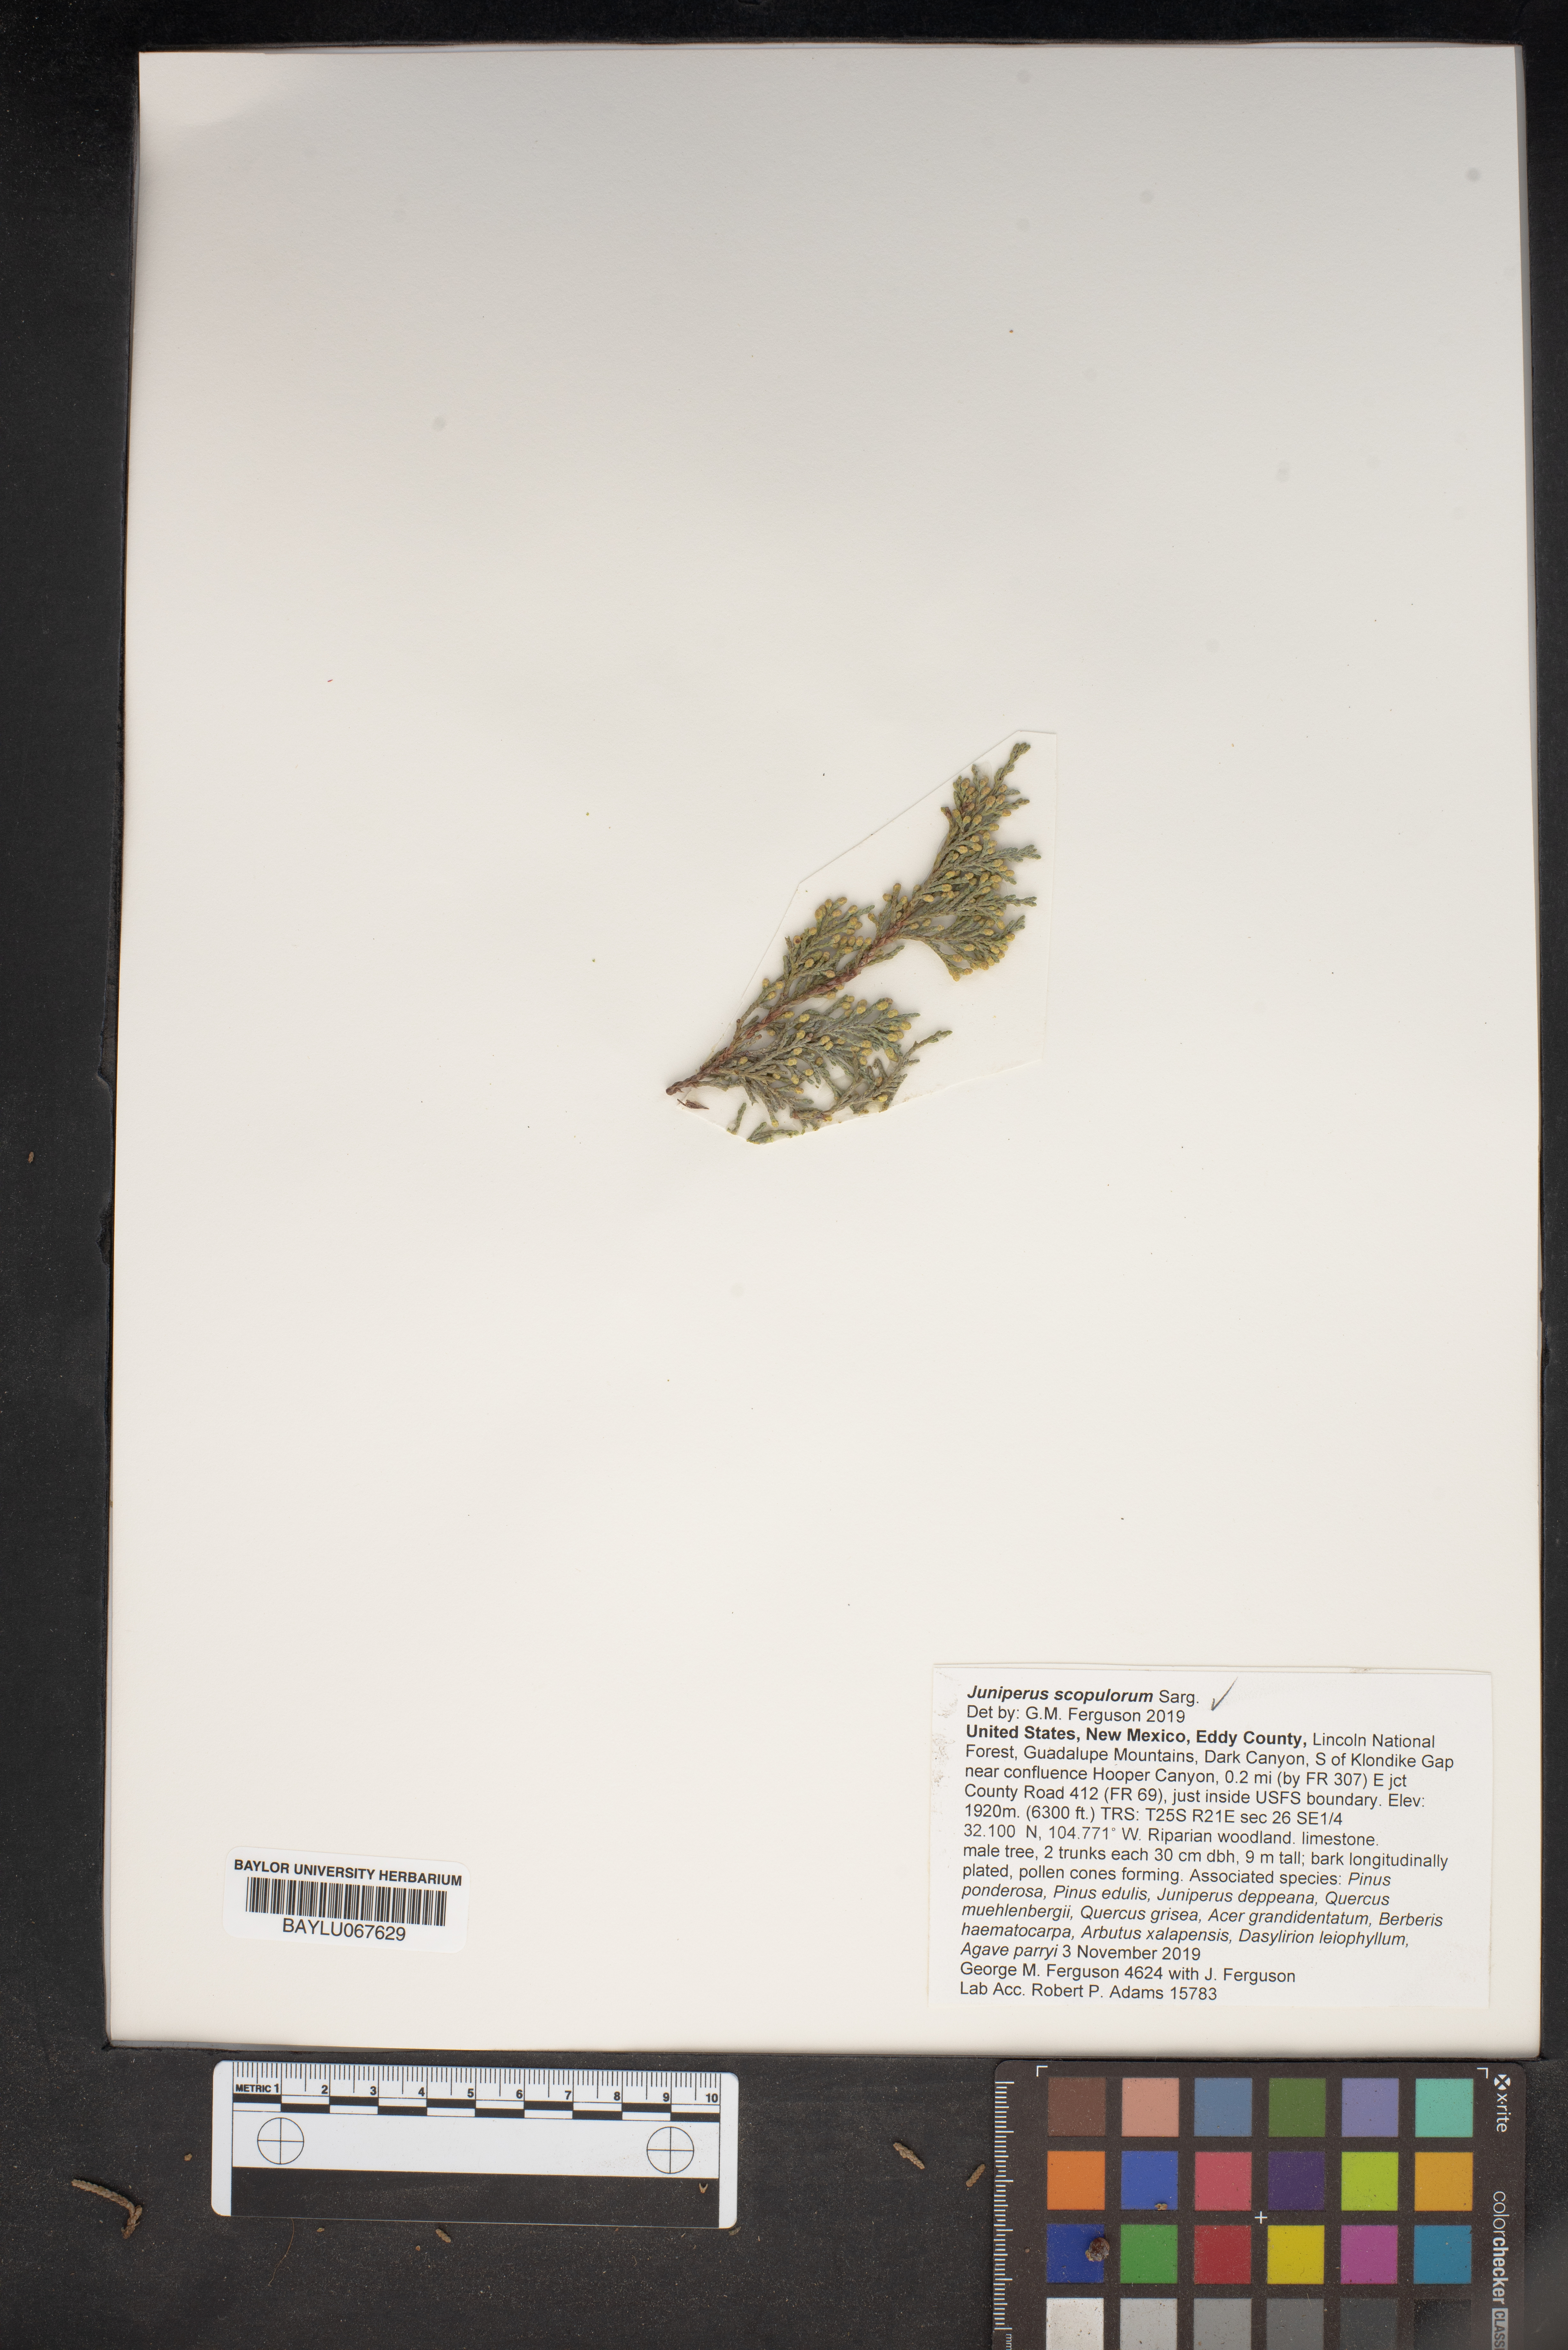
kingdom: Plantae
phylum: Tracheophyta
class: Pinopsida
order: Pinales
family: Cupressaceae
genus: Juniperus
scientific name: Juniperus scopulorum
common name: Rocky mountain juniper
